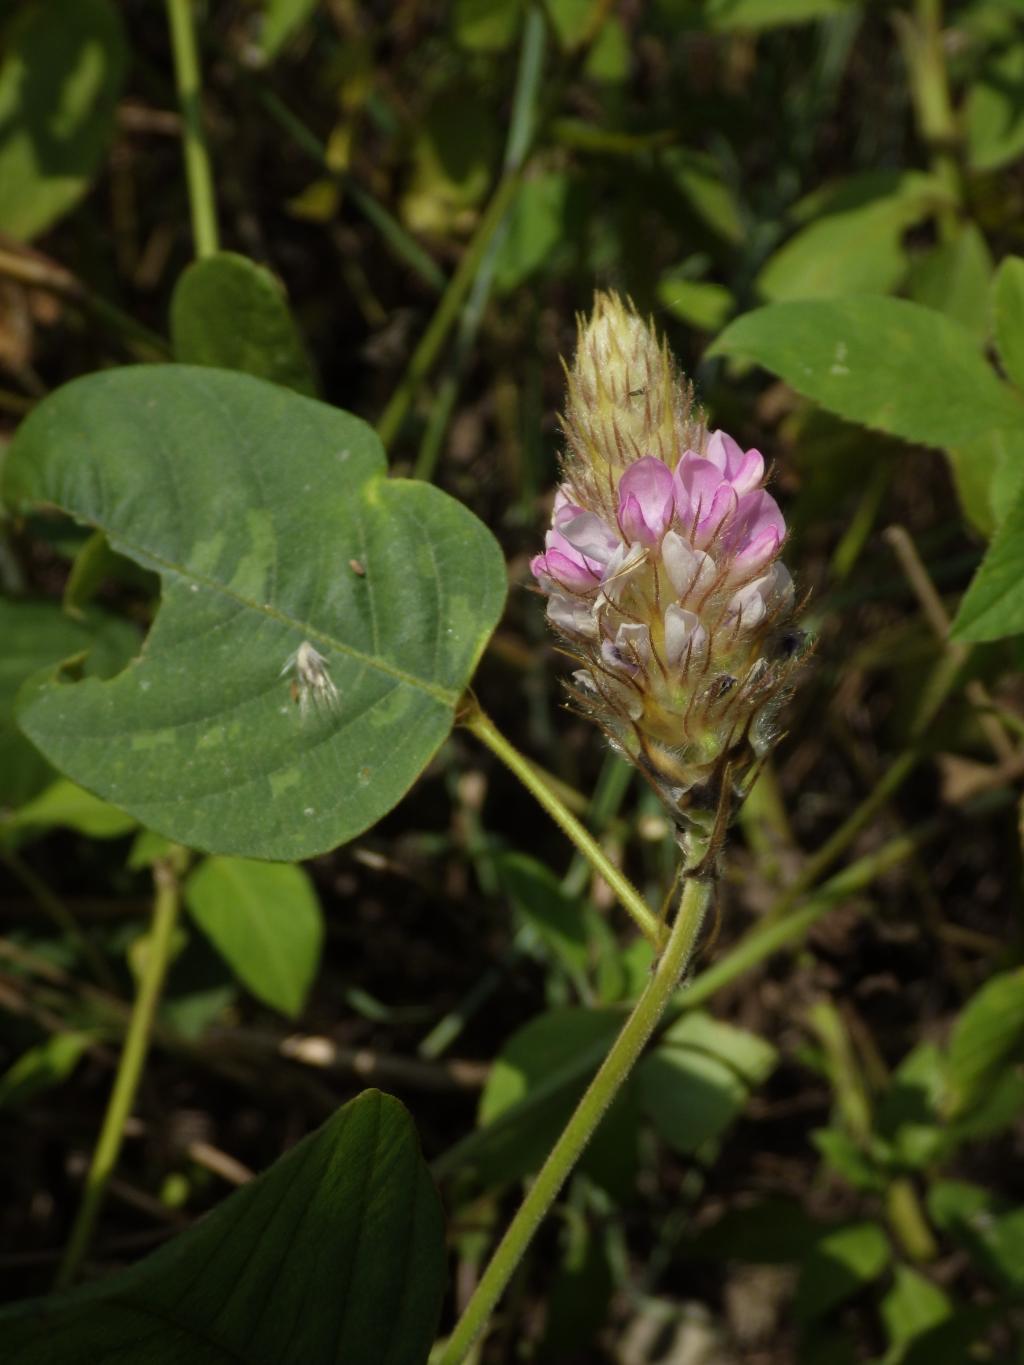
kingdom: Plantae
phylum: Tracheophyta
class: Magnoliopsida
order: Fabales
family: Fabaceae
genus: Uraria
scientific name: Uraria lagopodioides
